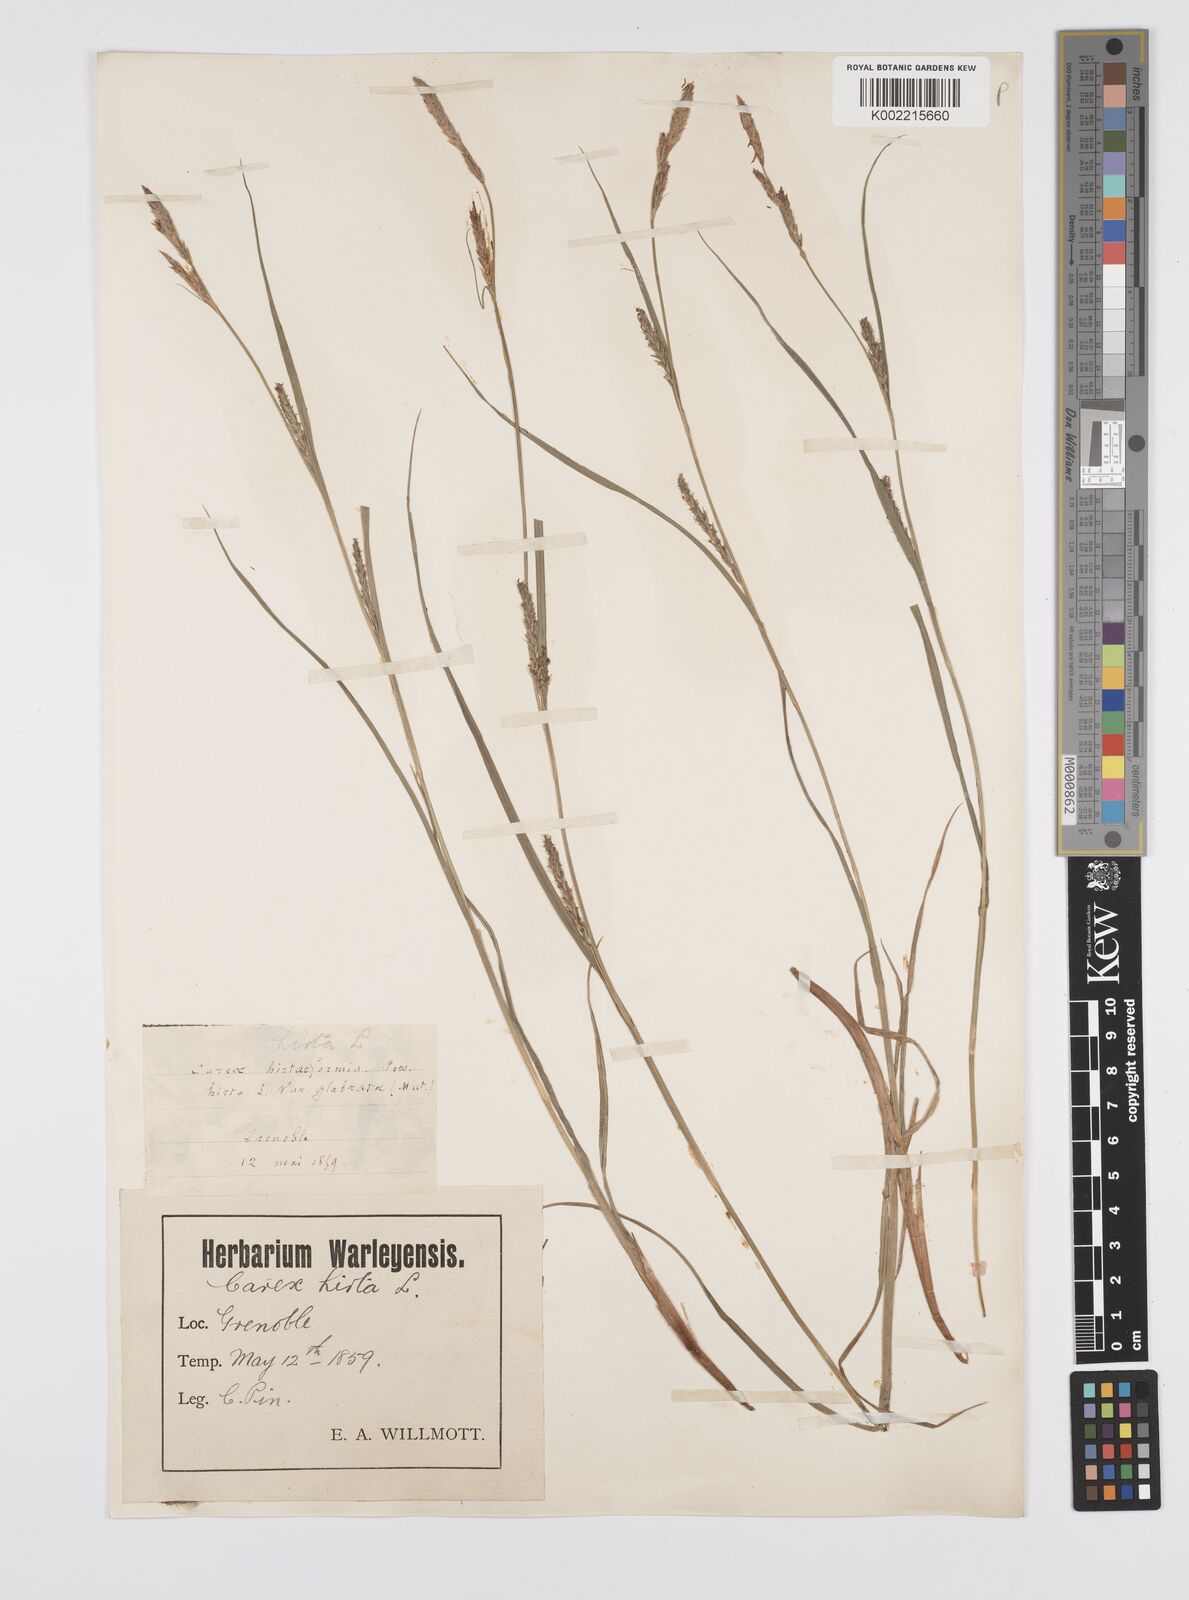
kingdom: Plantae
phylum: Tracheophyta
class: Liliopsida
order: Poales
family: Cyperaceae
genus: Carex
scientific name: Carex hirta
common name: Hairy sedge
